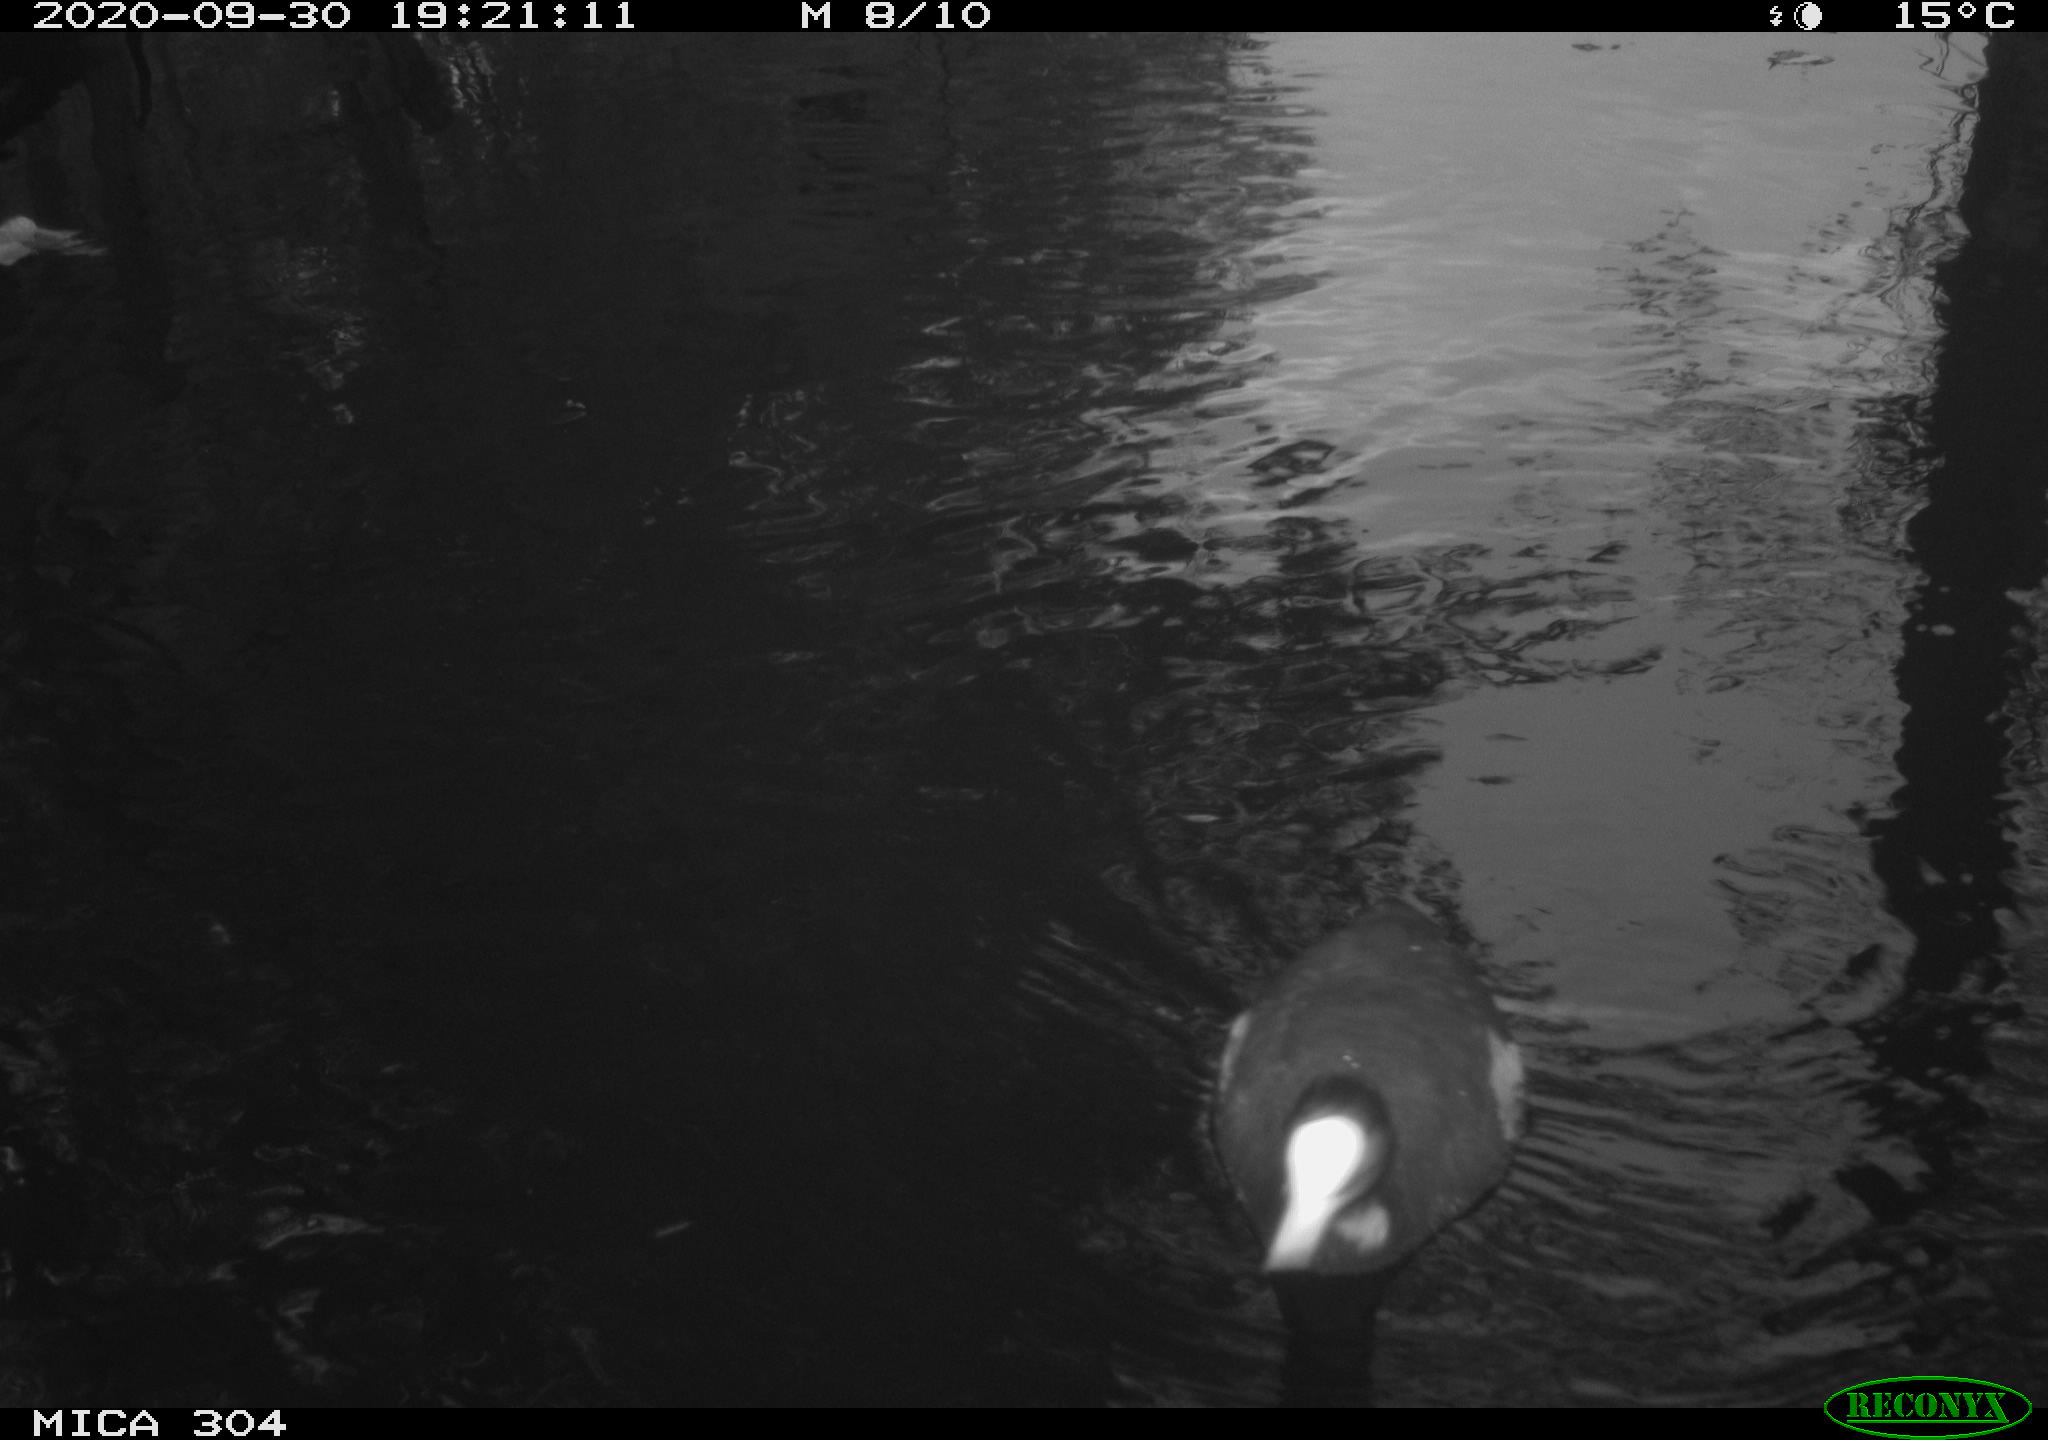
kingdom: Animalia
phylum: Chordata
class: Aves
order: Gruiformes
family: Rallidae
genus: Gallinula
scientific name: Gallinula chloropus
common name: Common moorhen
